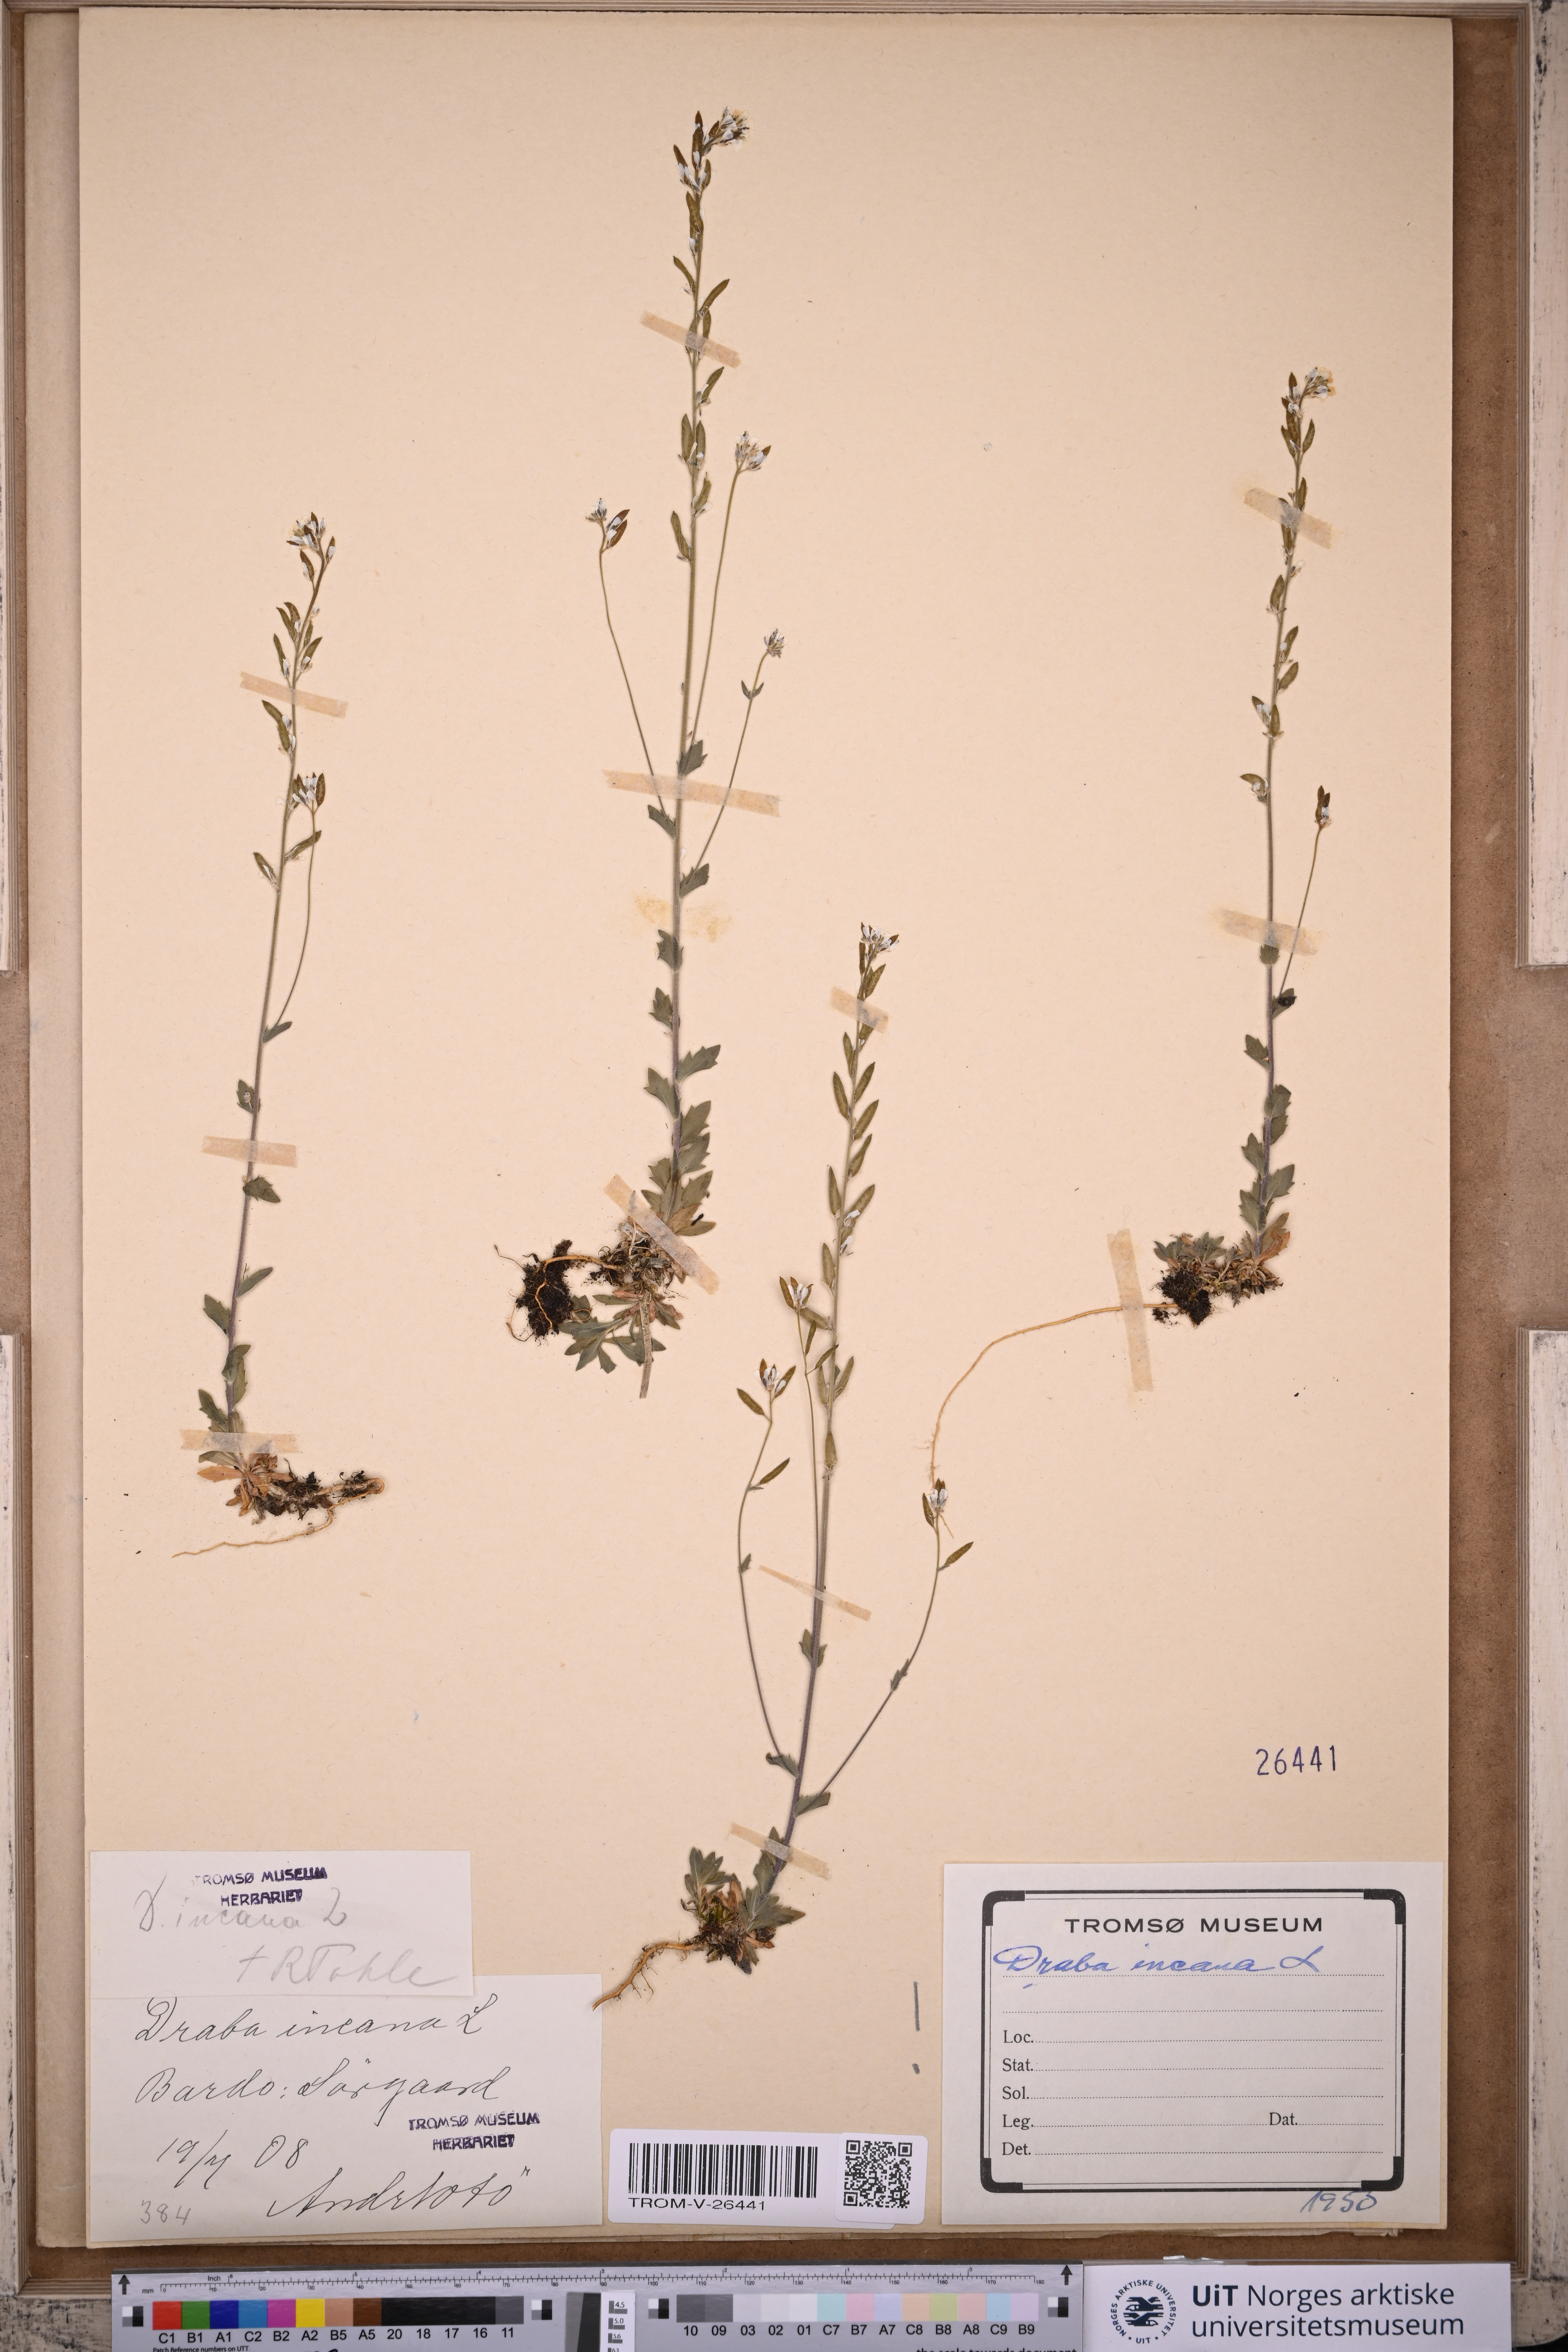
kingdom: Plantae
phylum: Tracheophyta
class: Magnoliopsida
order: Brassicales
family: Brassicaceae
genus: Draba
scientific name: Draba incana
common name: Hoary whitlow-grass
